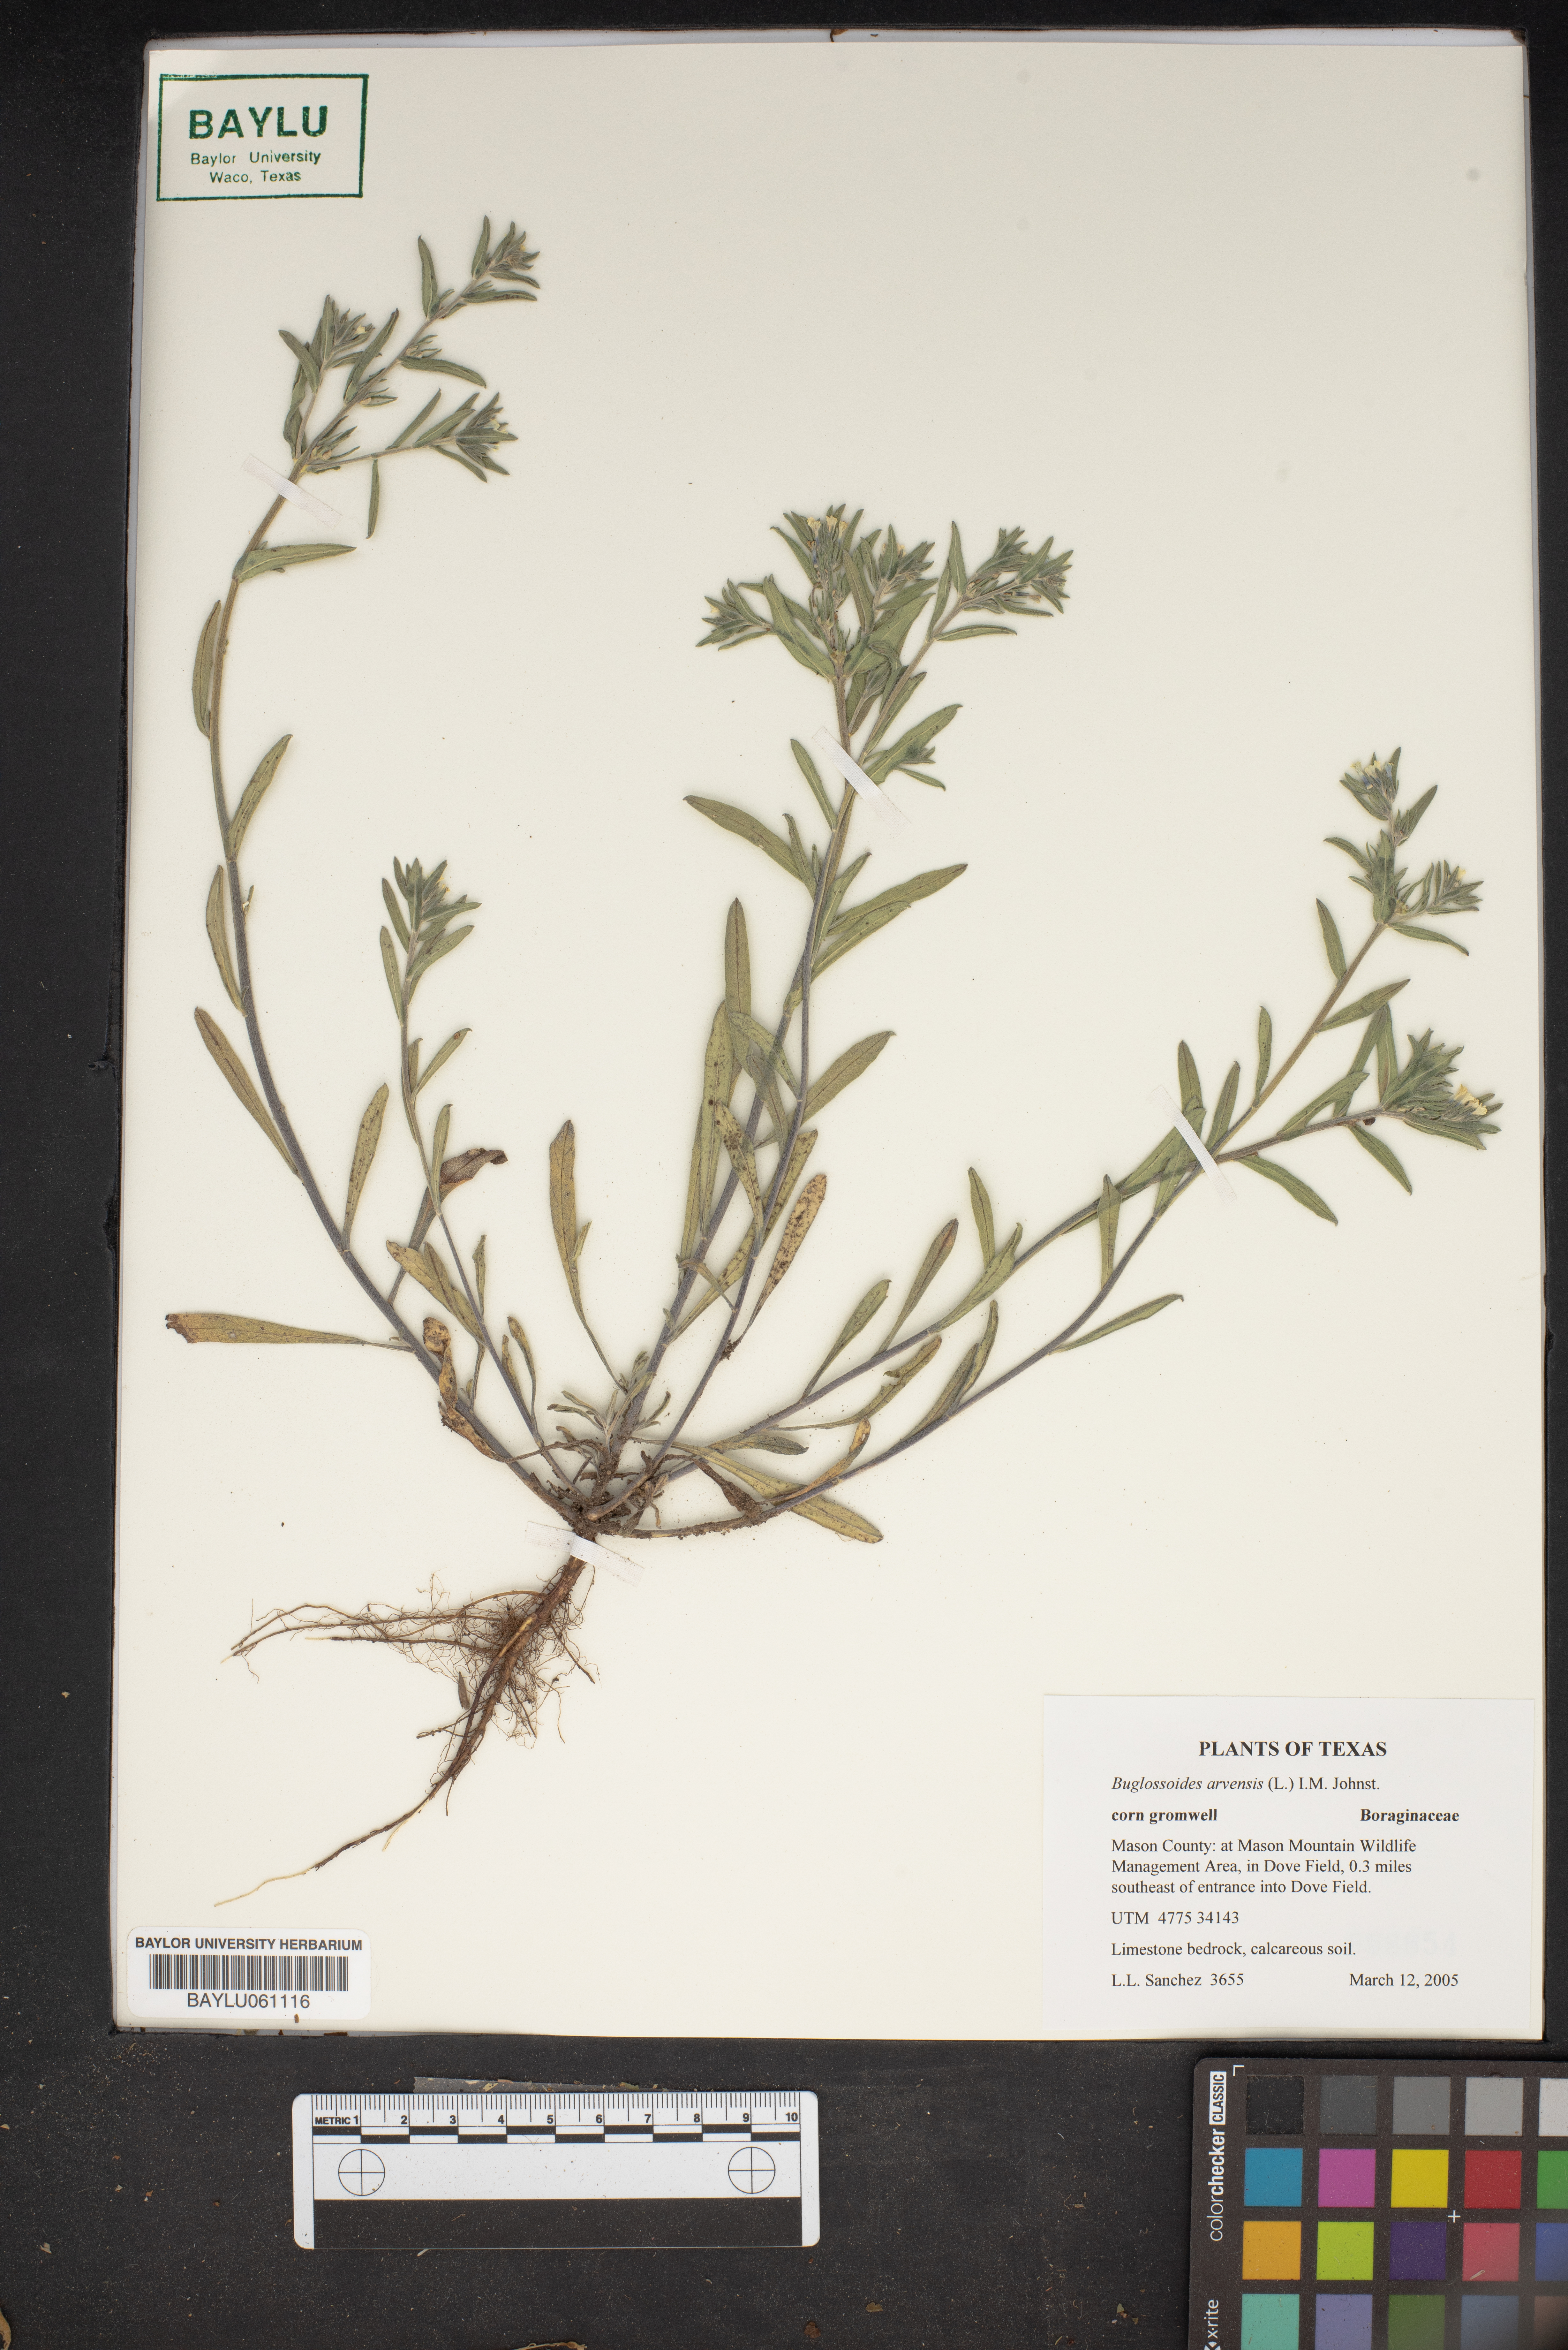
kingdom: Plantae
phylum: Tracheophyta
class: Magnoliopsida
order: Boraginales
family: Boraginaceae
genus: Buglossoides
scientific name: Buglossoides arvensis
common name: Corn gromwell
